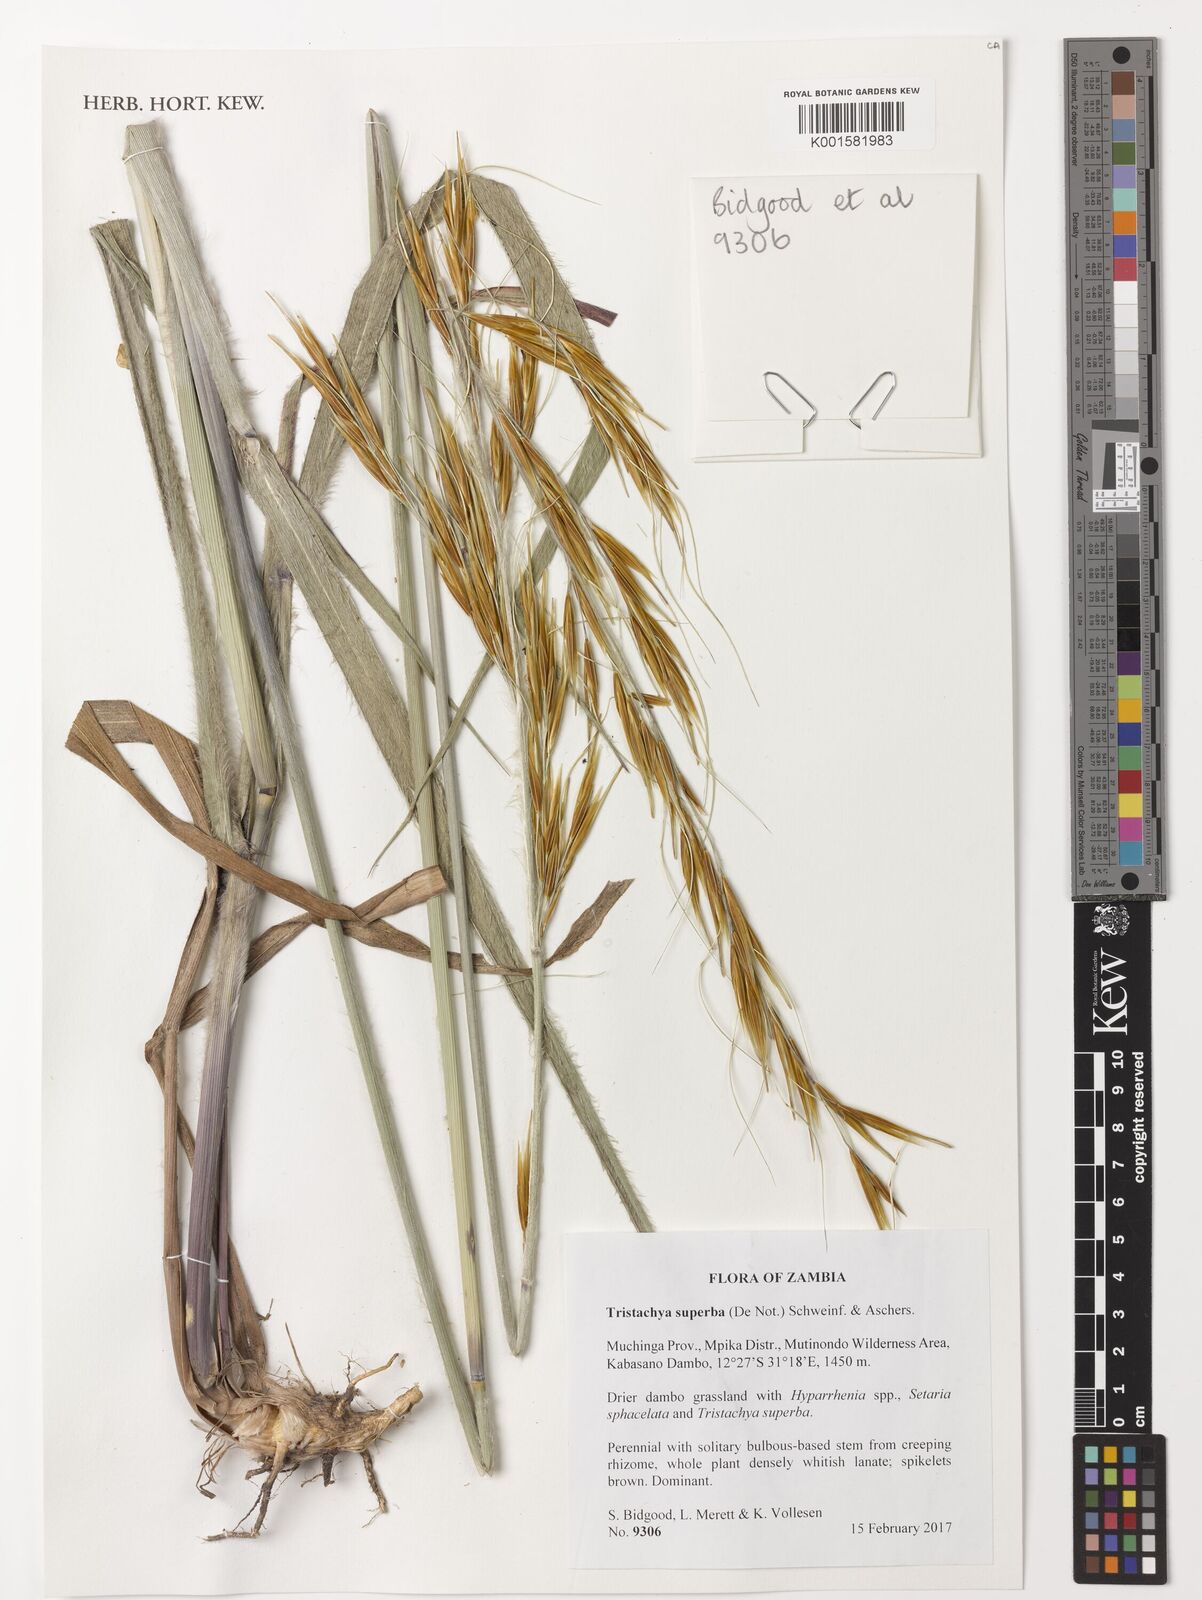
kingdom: Plantae
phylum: Tracheophyta
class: Liliopsida
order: Poales
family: Poaceae
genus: Tristachya
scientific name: Tristachya superba
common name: Giant trident grass
